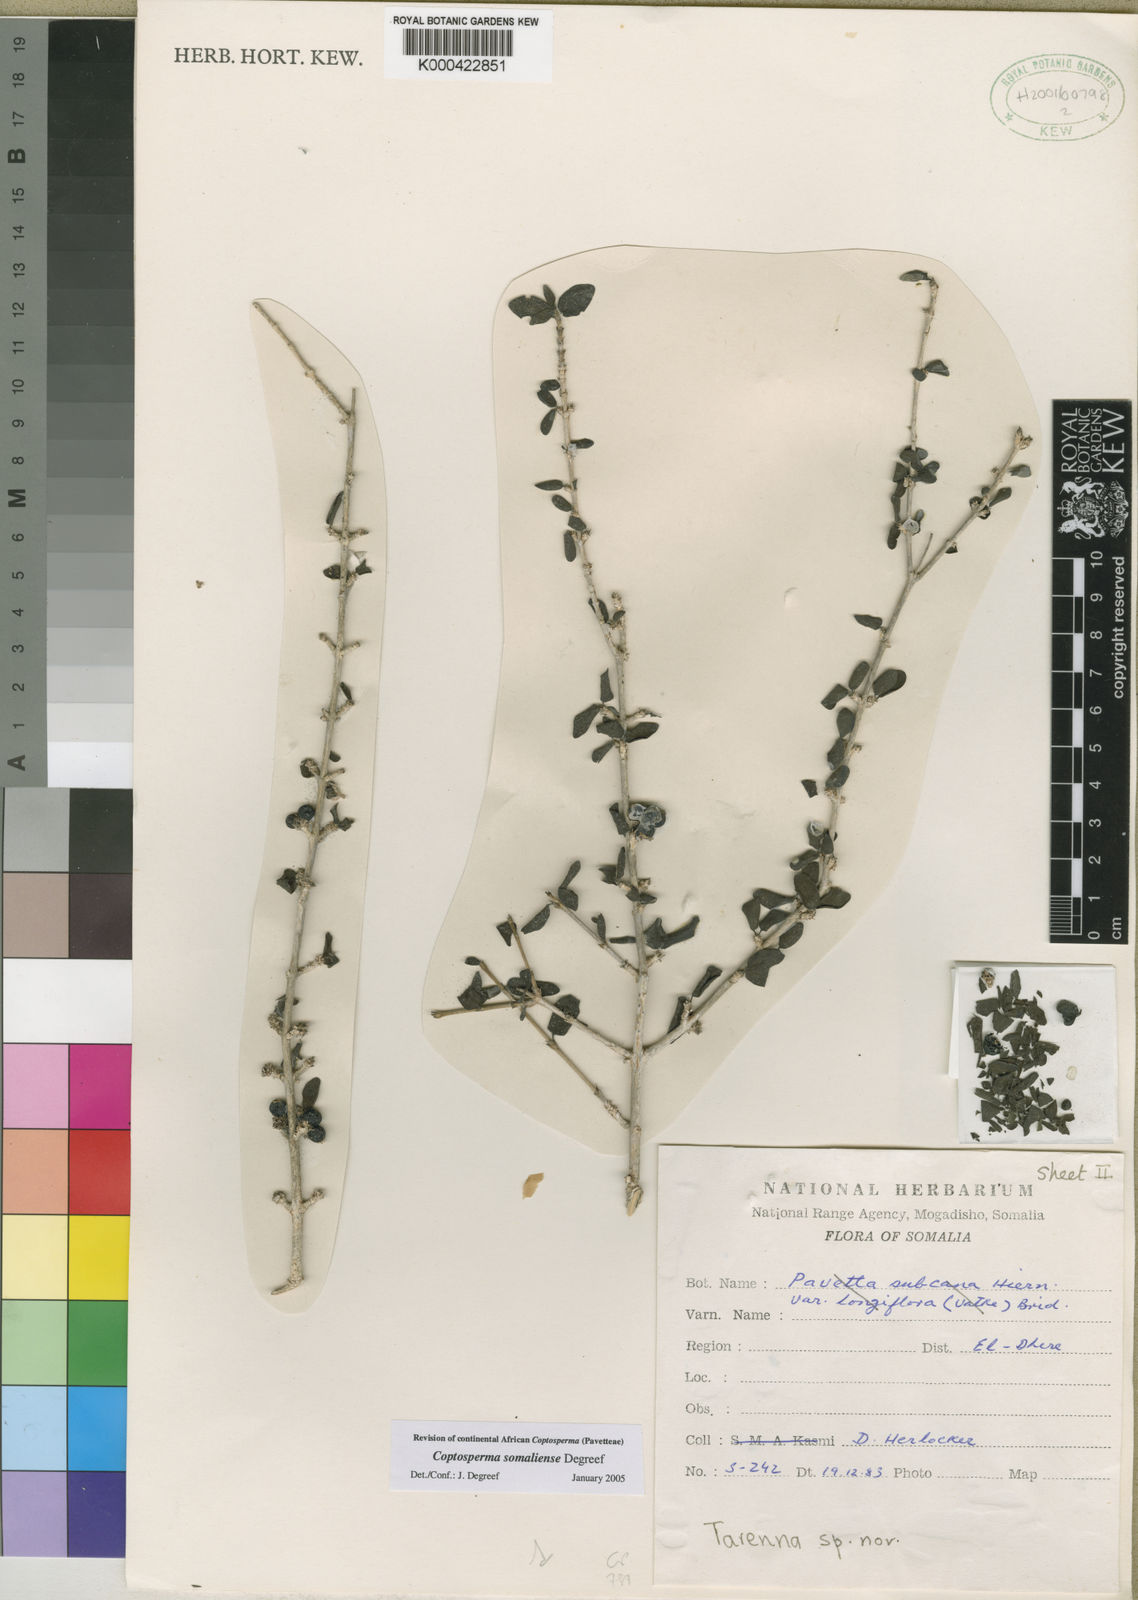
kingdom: Plantae
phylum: Tracheophyta
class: Magnoliopsida
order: Gentianales
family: Rubiaceae
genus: Coptosperma
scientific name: Coptosperma somaliense
